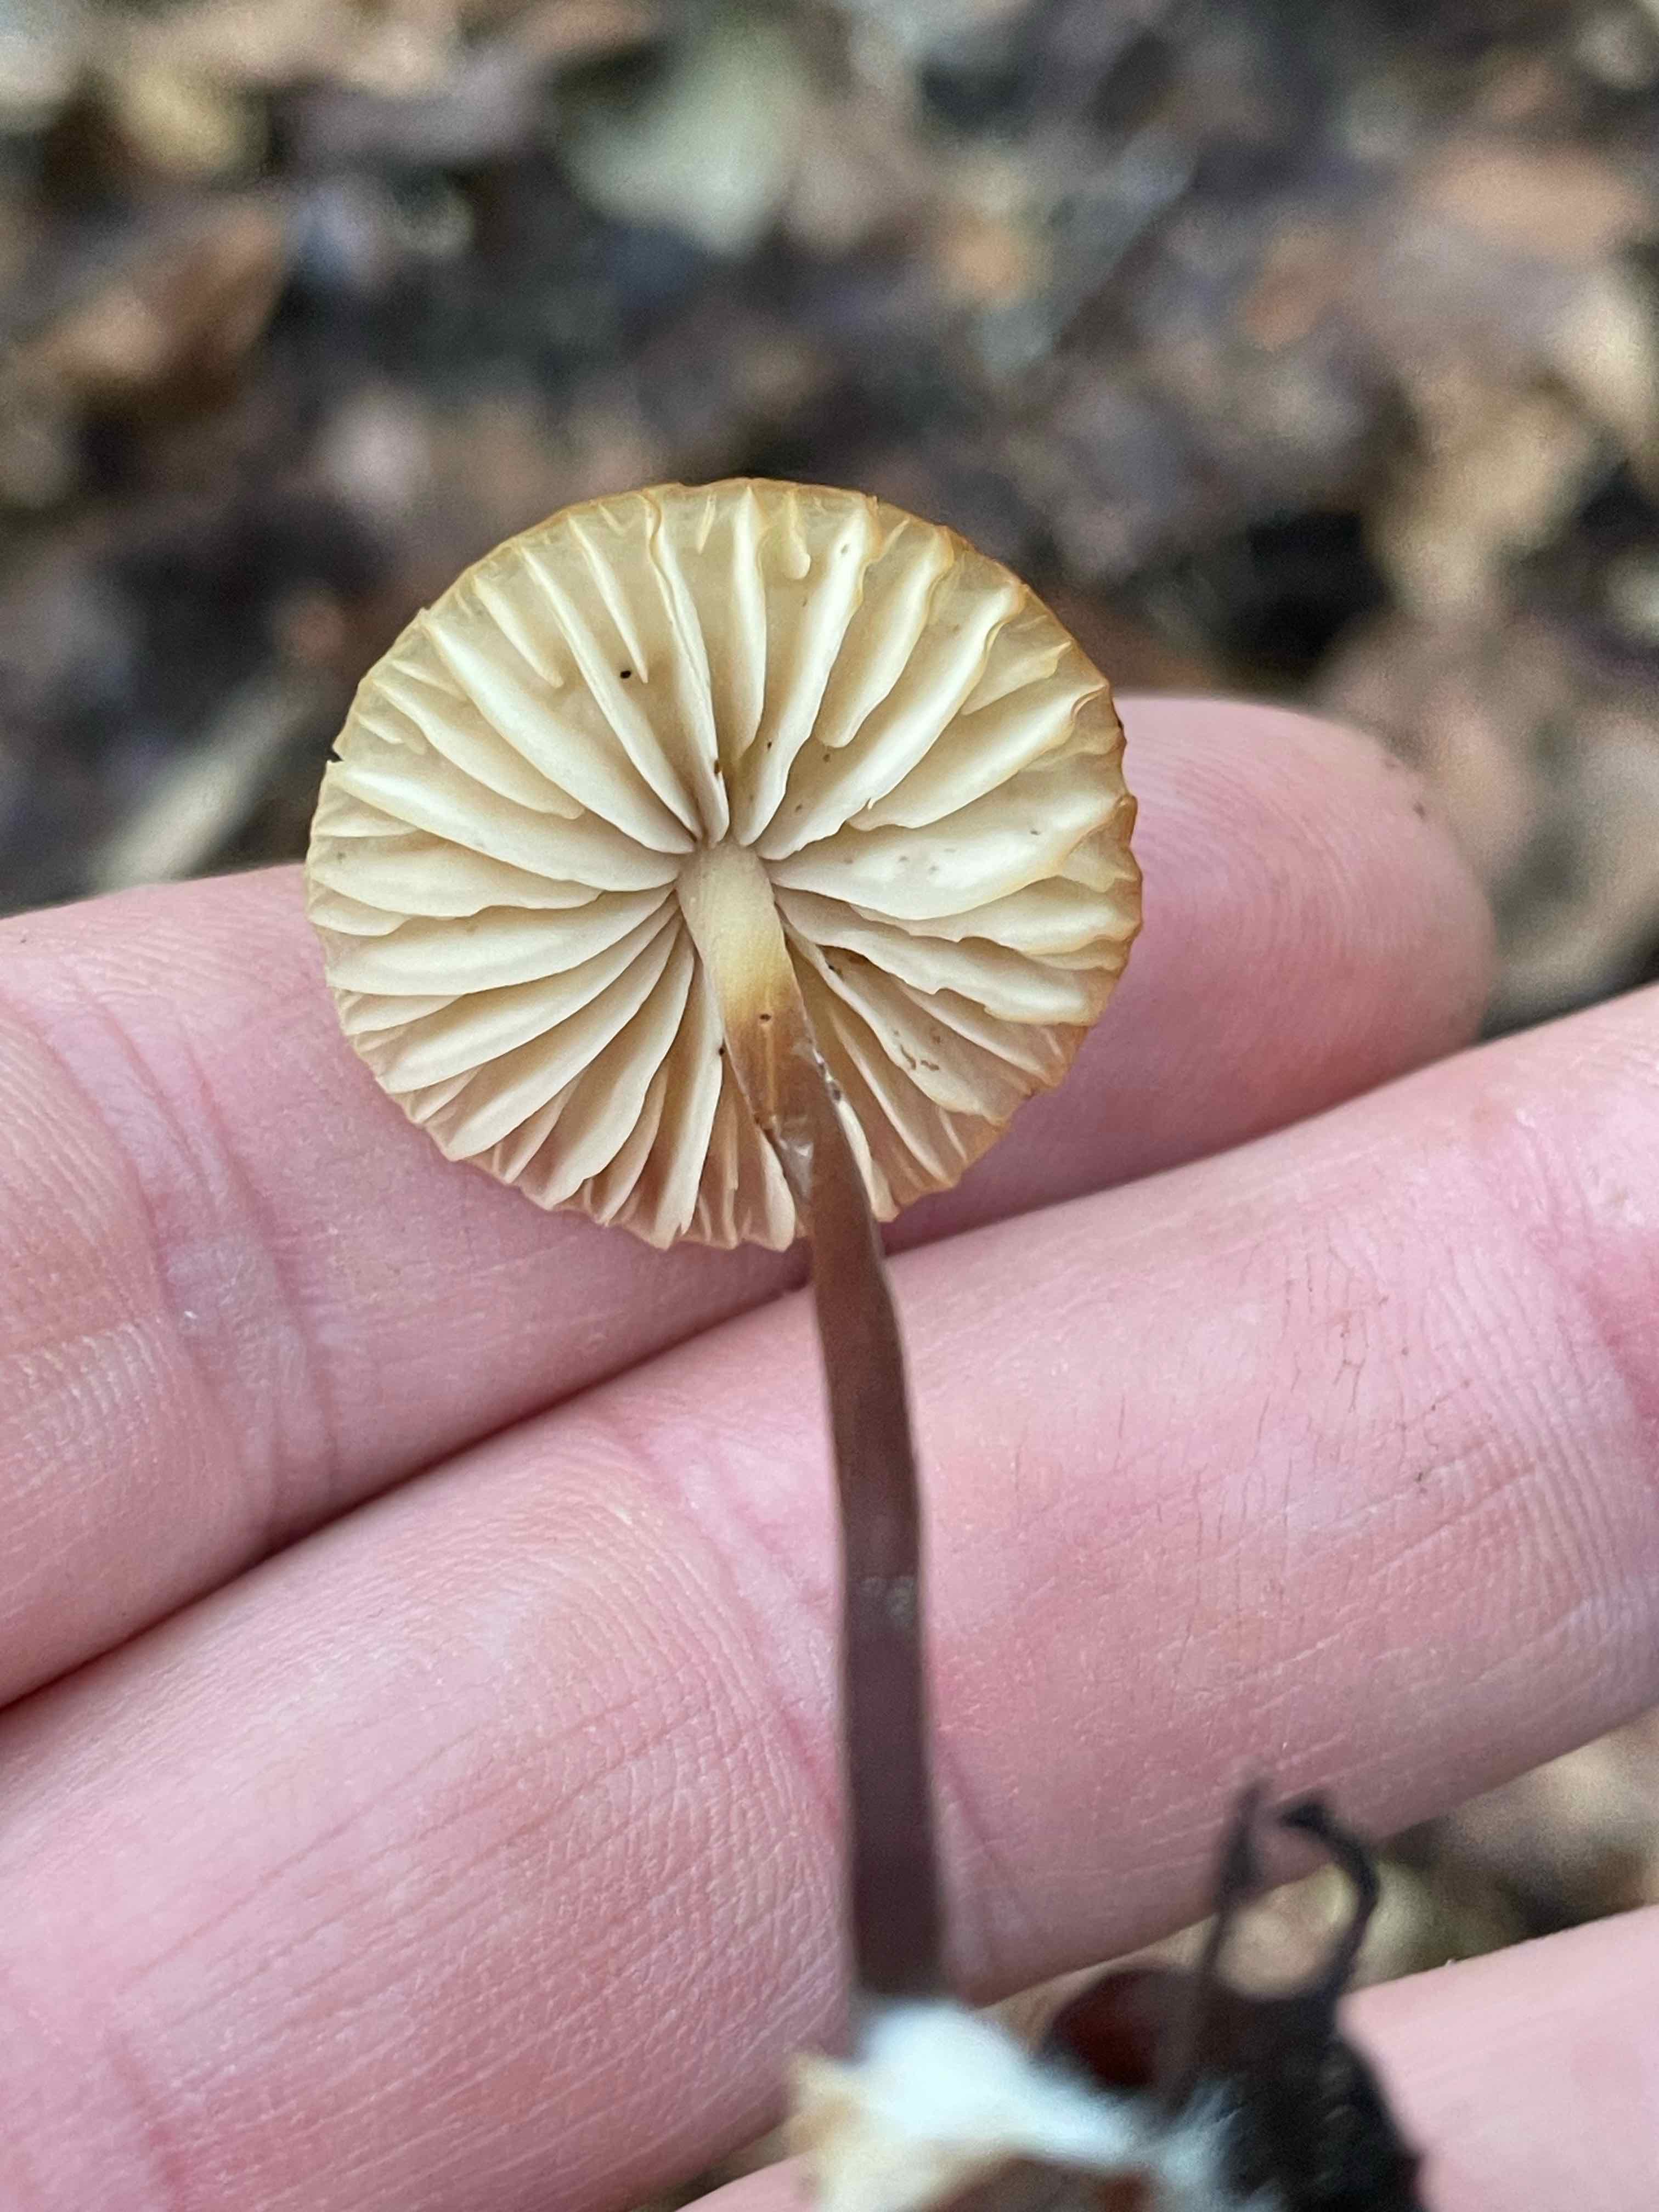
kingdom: Fungi
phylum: Basidiomycota
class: Agaricomycetes
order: Agaricales
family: Marasmiaceae
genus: Marasmius
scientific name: Marasmius torquescens
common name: filtfodet bruskhat
